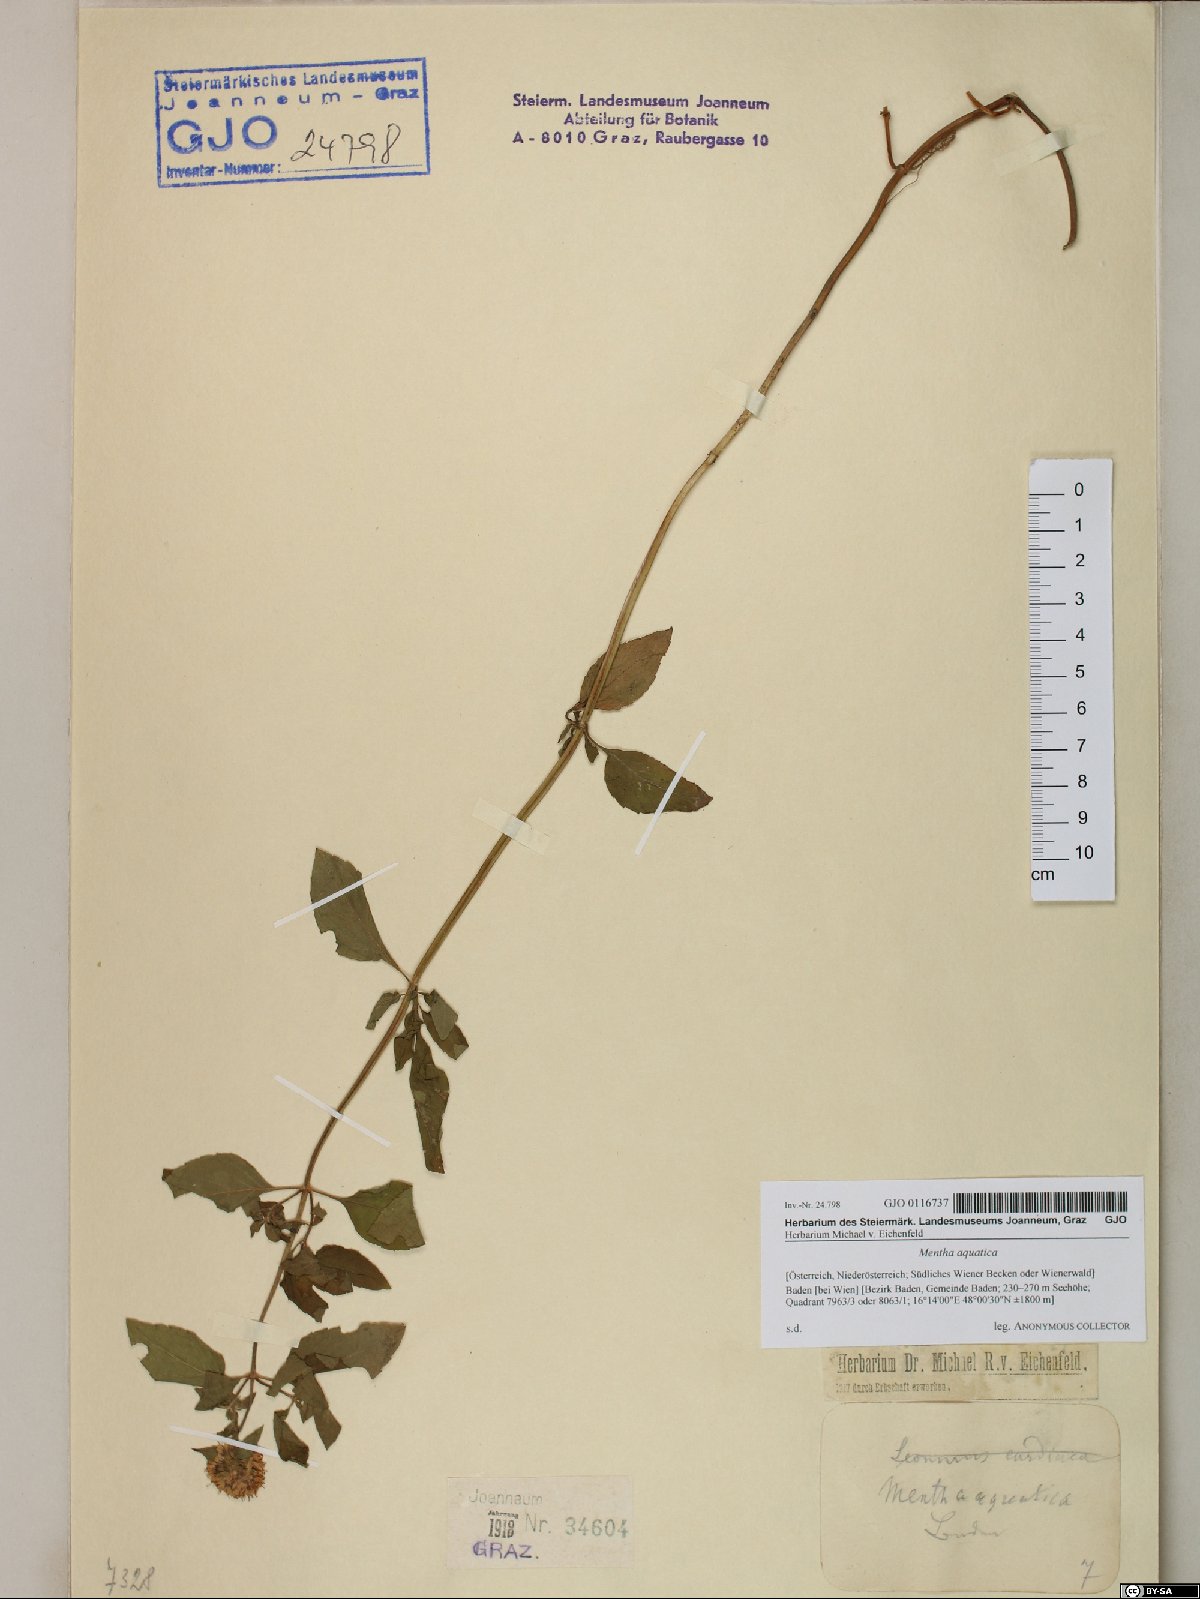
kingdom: Plantae
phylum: Tracheophyta
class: Magnoliopsida
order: Lamiales
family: Lamiaceae
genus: Mentha
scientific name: Mentha aquatica
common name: Water mint
